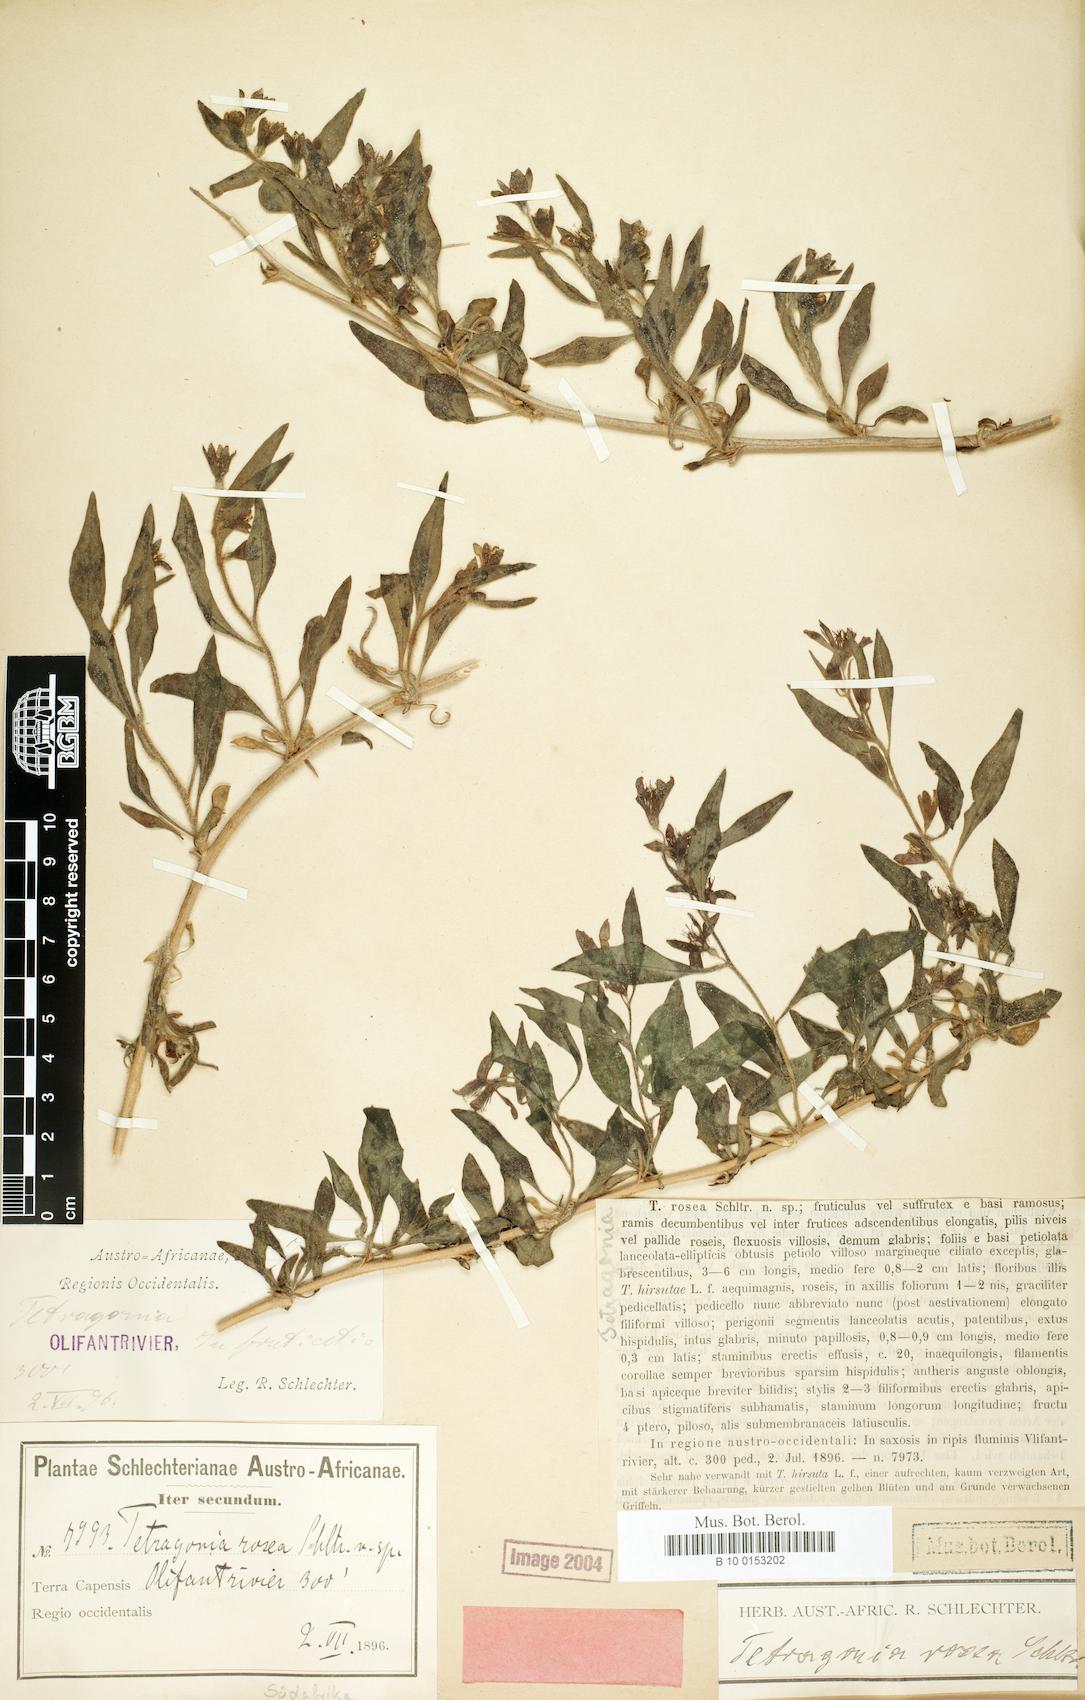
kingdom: Plantae
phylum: Tracheophyta
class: Magnoliopsida
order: Caryophyllales
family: Aizoaceae
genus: Tetragonia
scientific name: Tetragonia rosea
